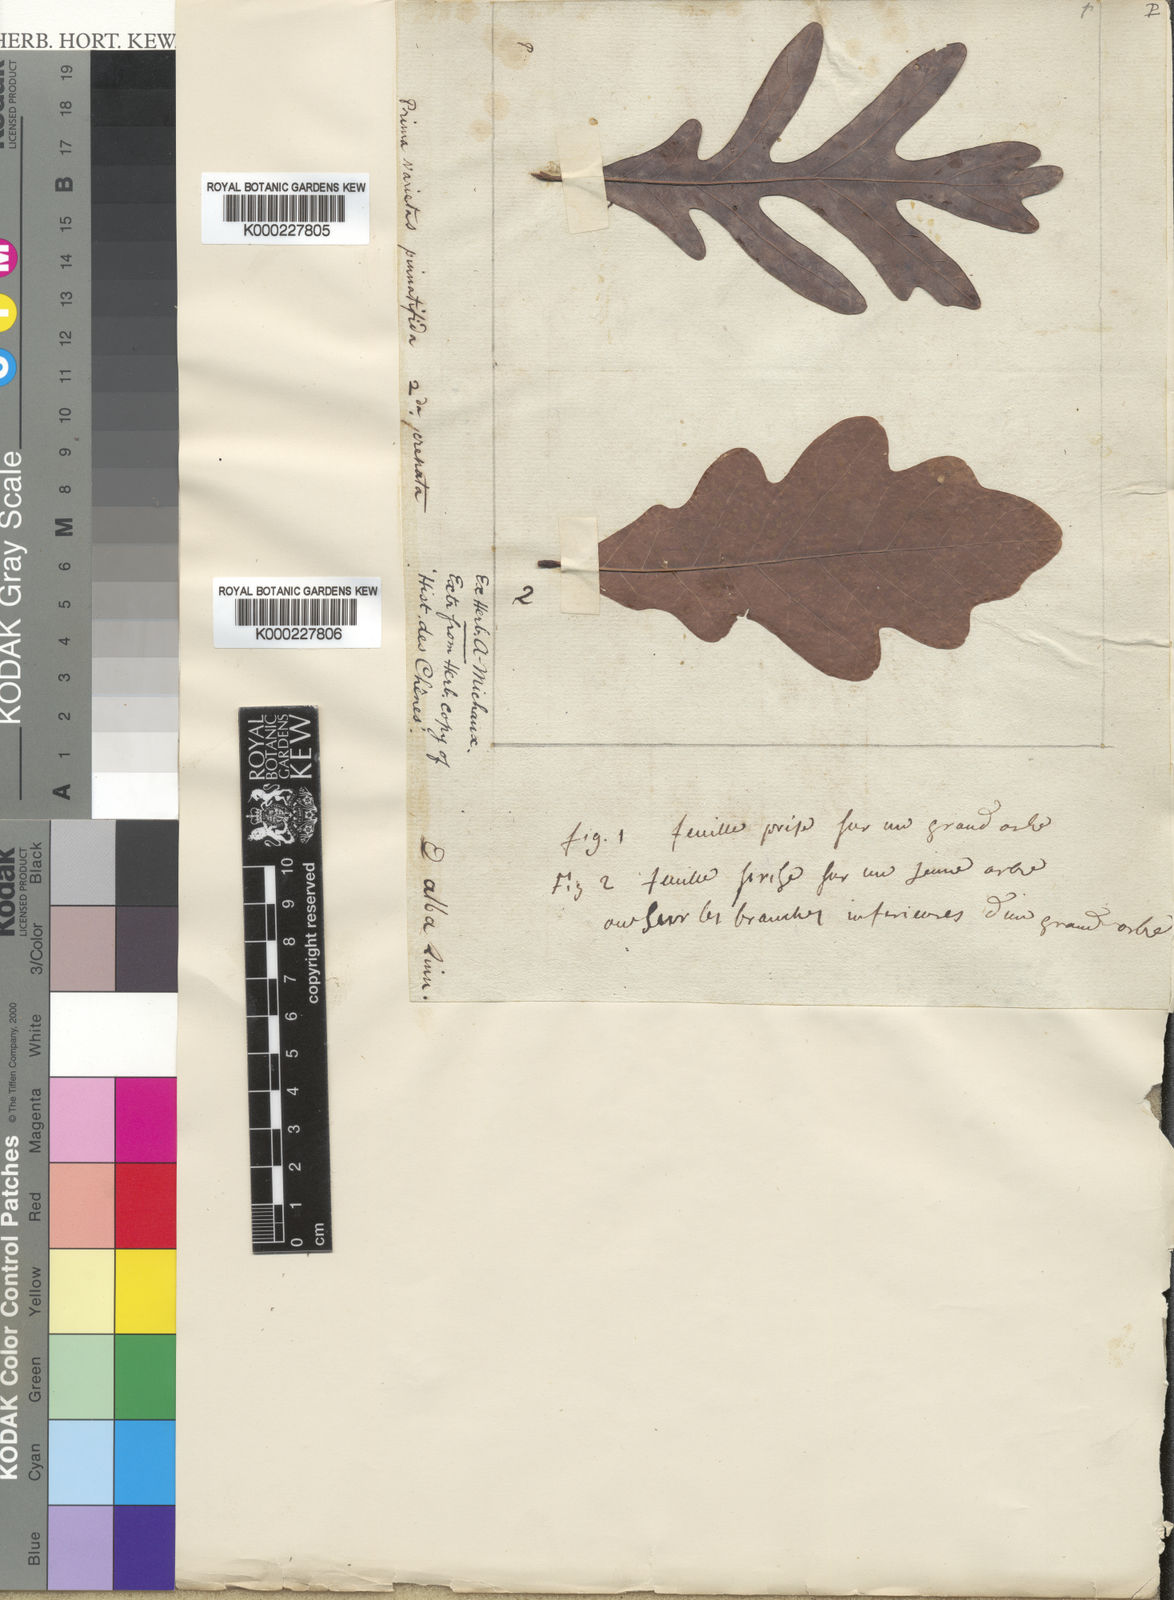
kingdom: Plantae
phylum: Tracheophyta
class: Magnoliopsida
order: Fagales
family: Fagaceae
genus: Quercus
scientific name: Quercus alba
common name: White oak
